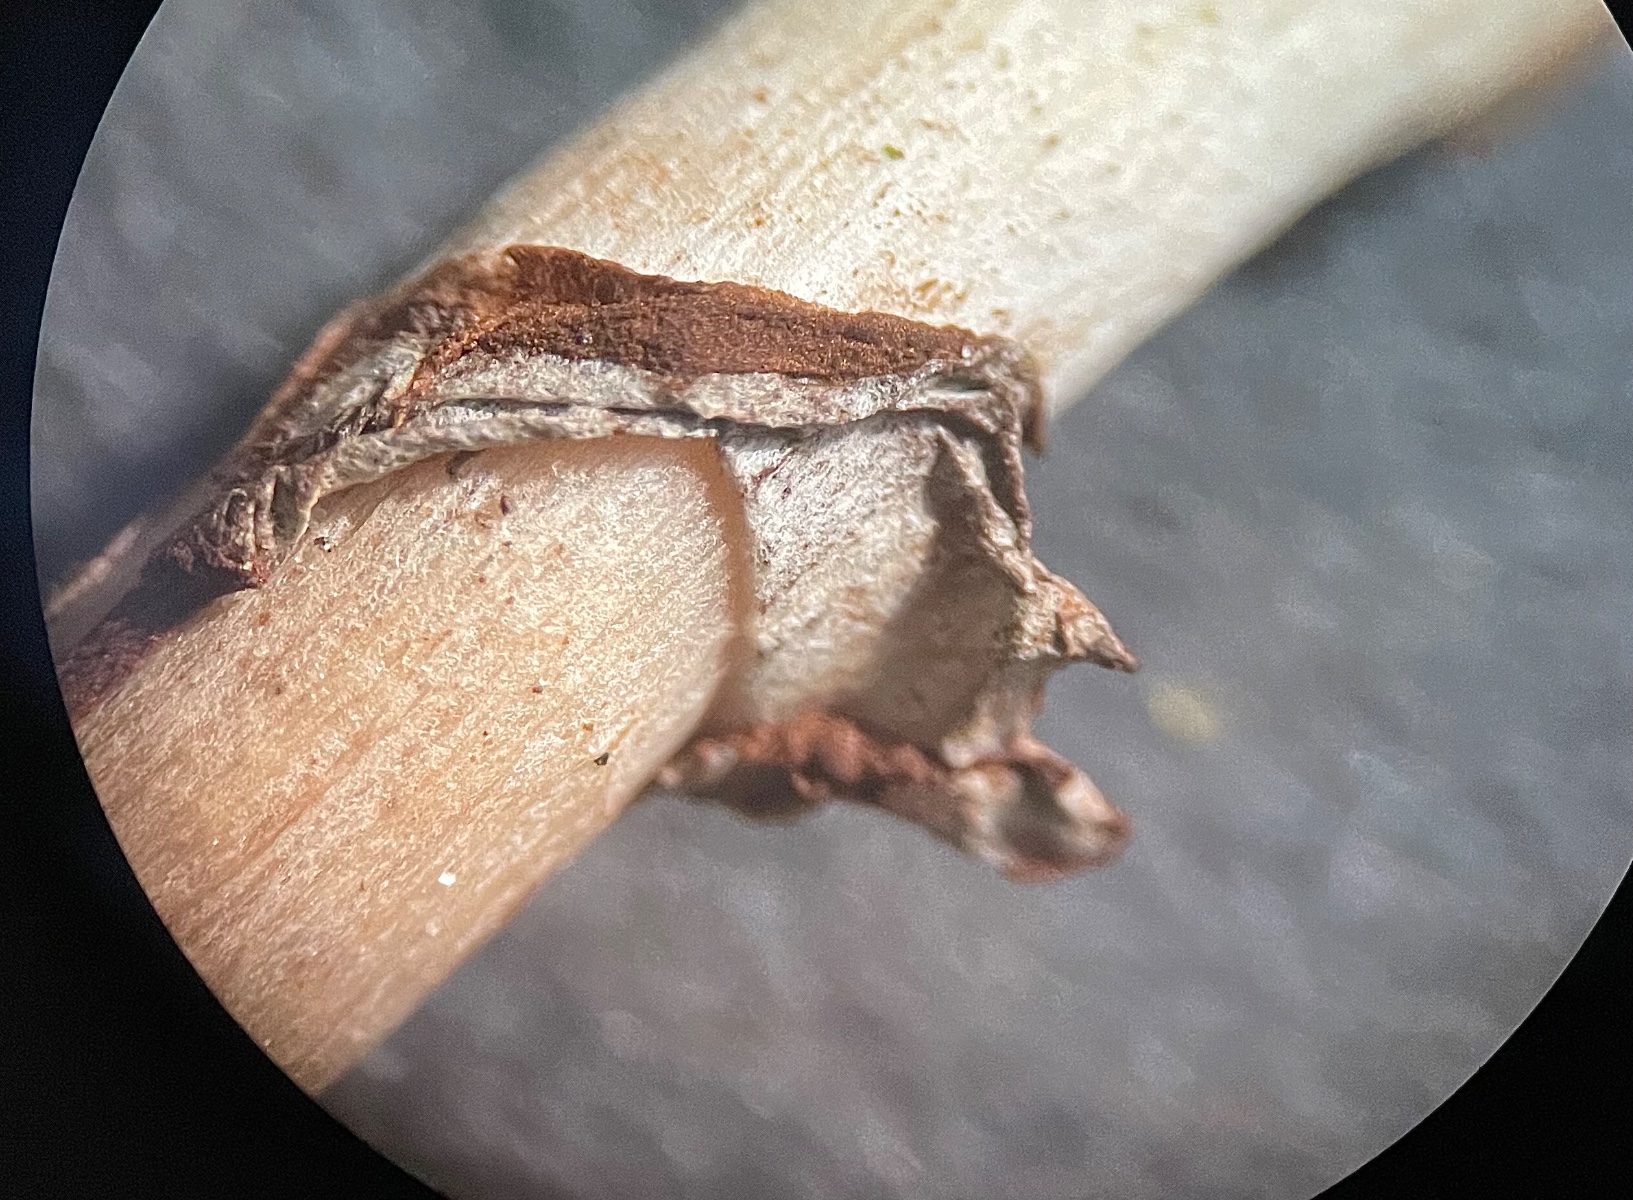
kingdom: Fungi
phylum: Basidiomycota
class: Agaricomycetes
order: Agaricales
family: Strophariaceae
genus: Agrocybe
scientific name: Agrocybe elatella
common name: mose-agerhat
